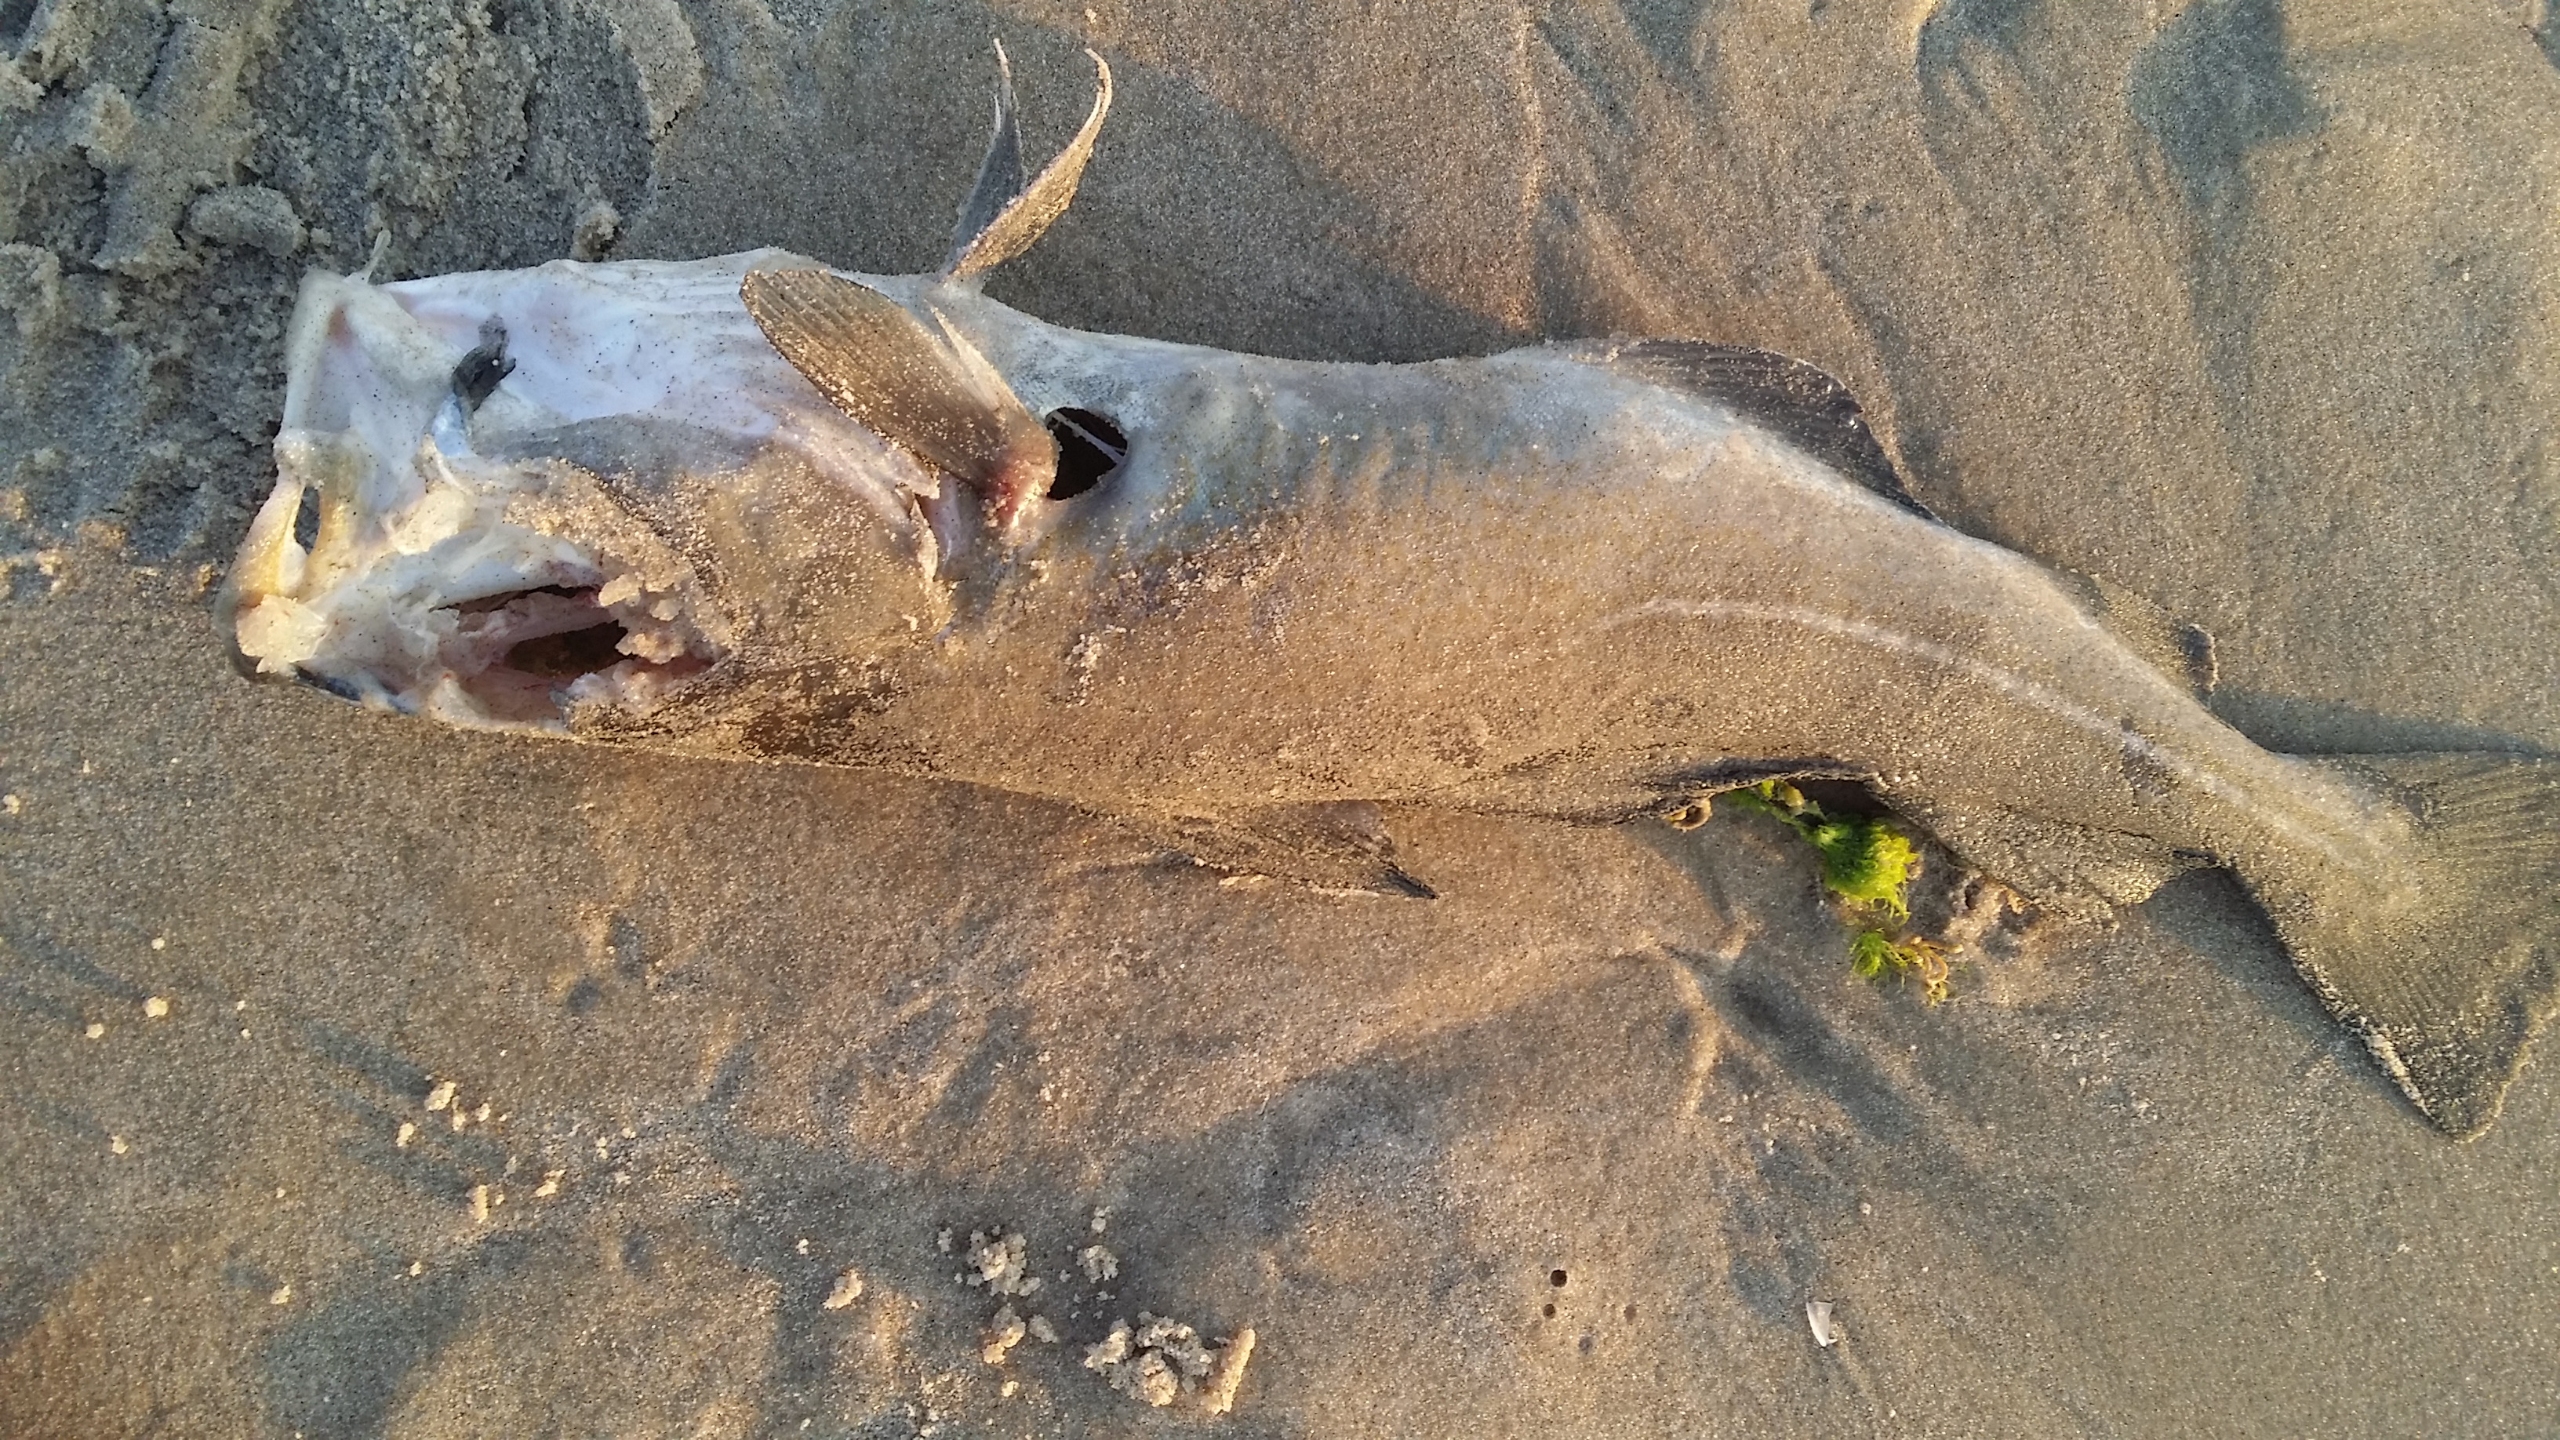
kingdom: Animalia
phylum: Chordata
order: Gadiformes
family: Gadidae
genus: Gadus
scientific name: Gadus morhua
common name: Torsk
